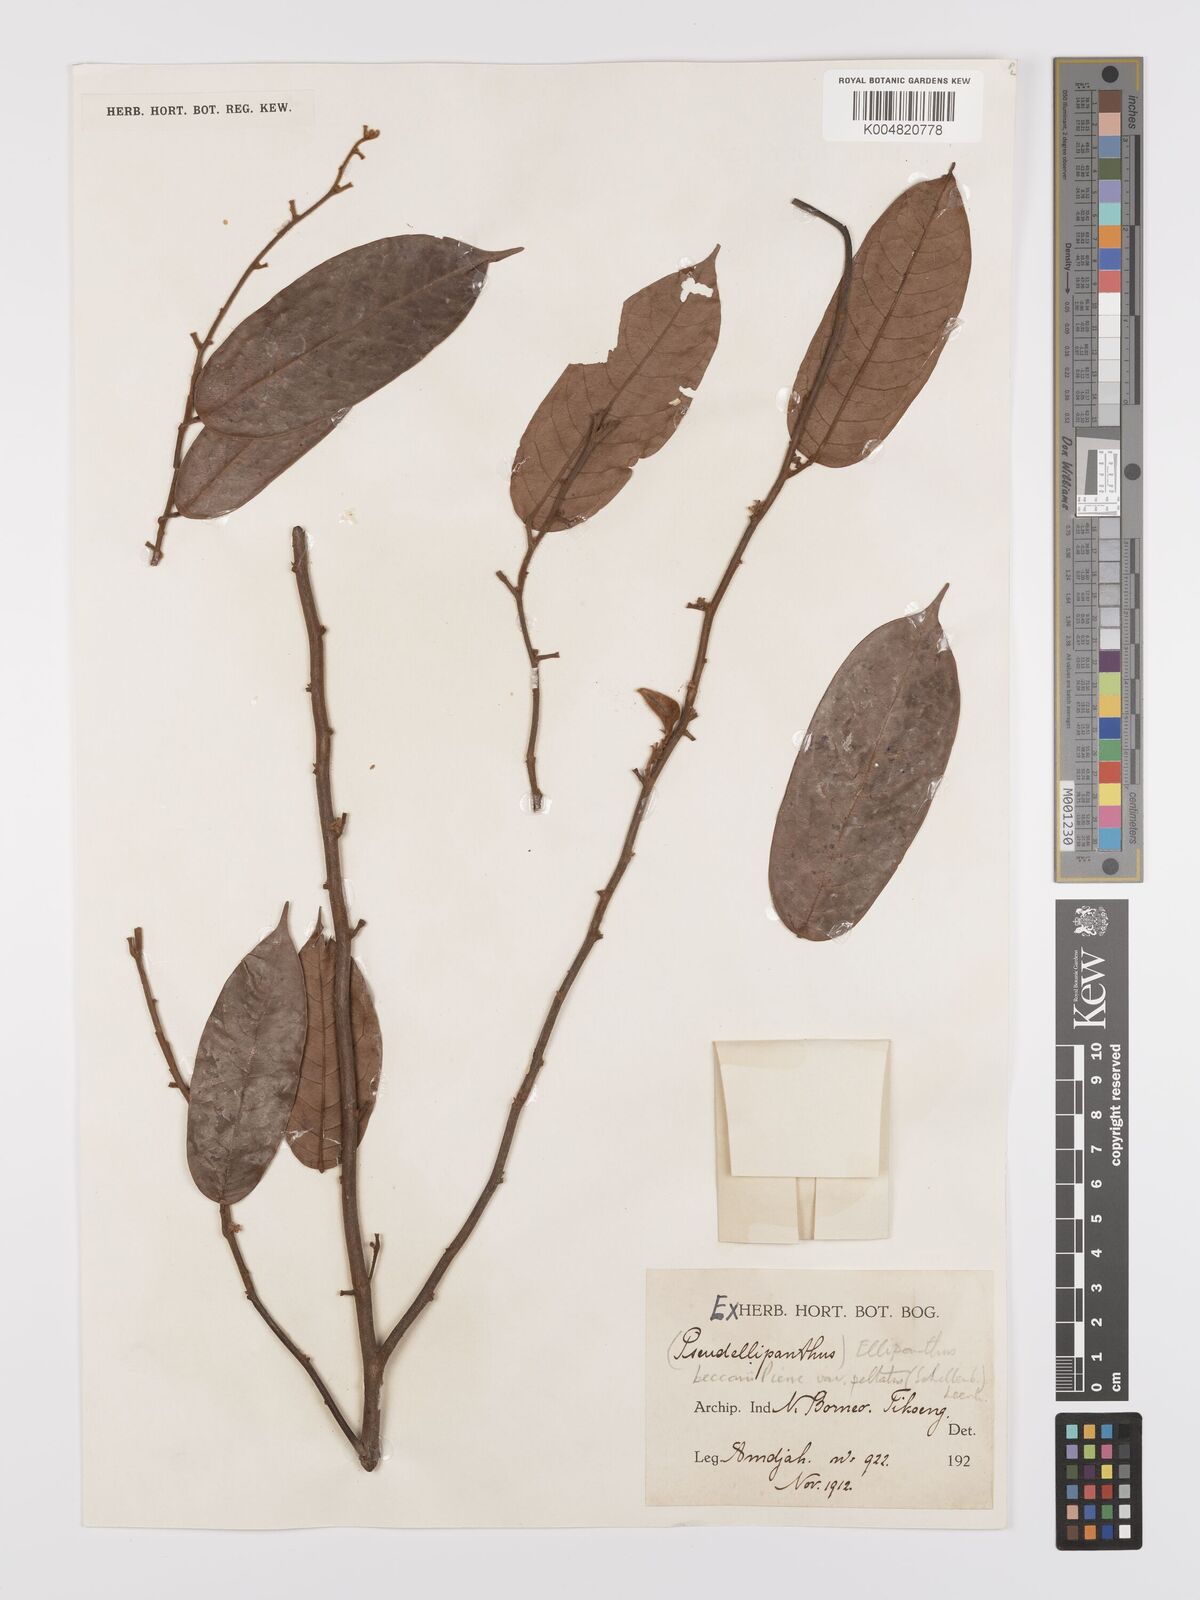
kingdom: Plantae
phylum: Tracheophyta
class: Magnoliopsida
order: Oxalidales
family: Connaraceae
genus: Ellipanthus
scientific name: Ellipanthus beccarii
